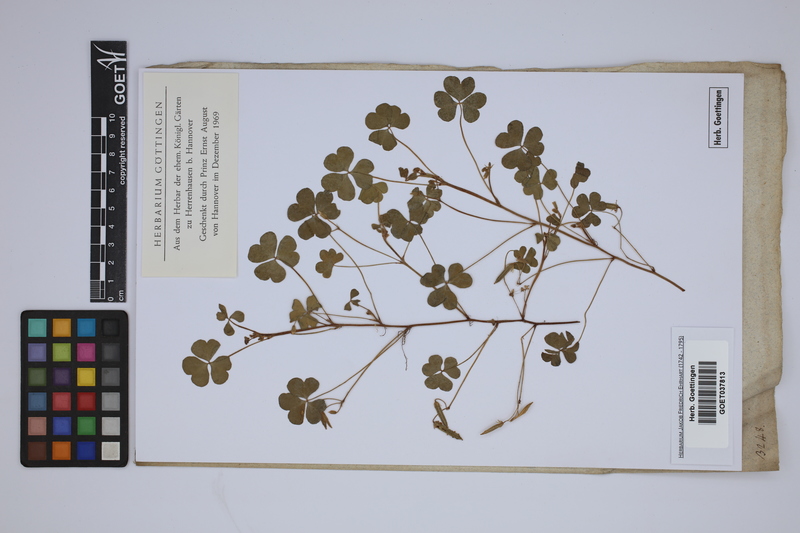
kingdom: Plantae
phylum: Tracheophyta
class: Magnoliopsida
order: Oxalidales
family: Oxalidaceae
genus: Oxalis
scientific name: Oxalis corniculata
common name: Procumbent yellow-sorrel
